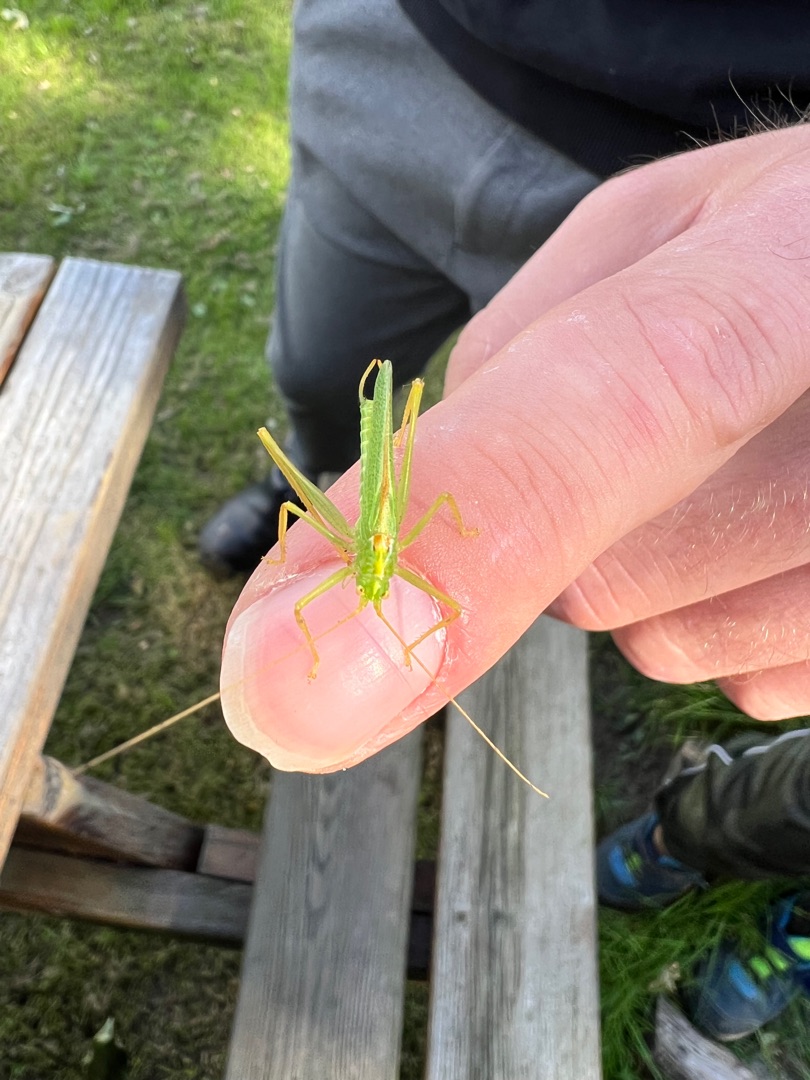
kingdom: Animalia
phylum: Arthropoda
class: Insecta
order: Orthoptera
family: Tettigoniidae
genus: Meconema
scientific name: Meconema thalassinum
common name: Egegræshoppe
